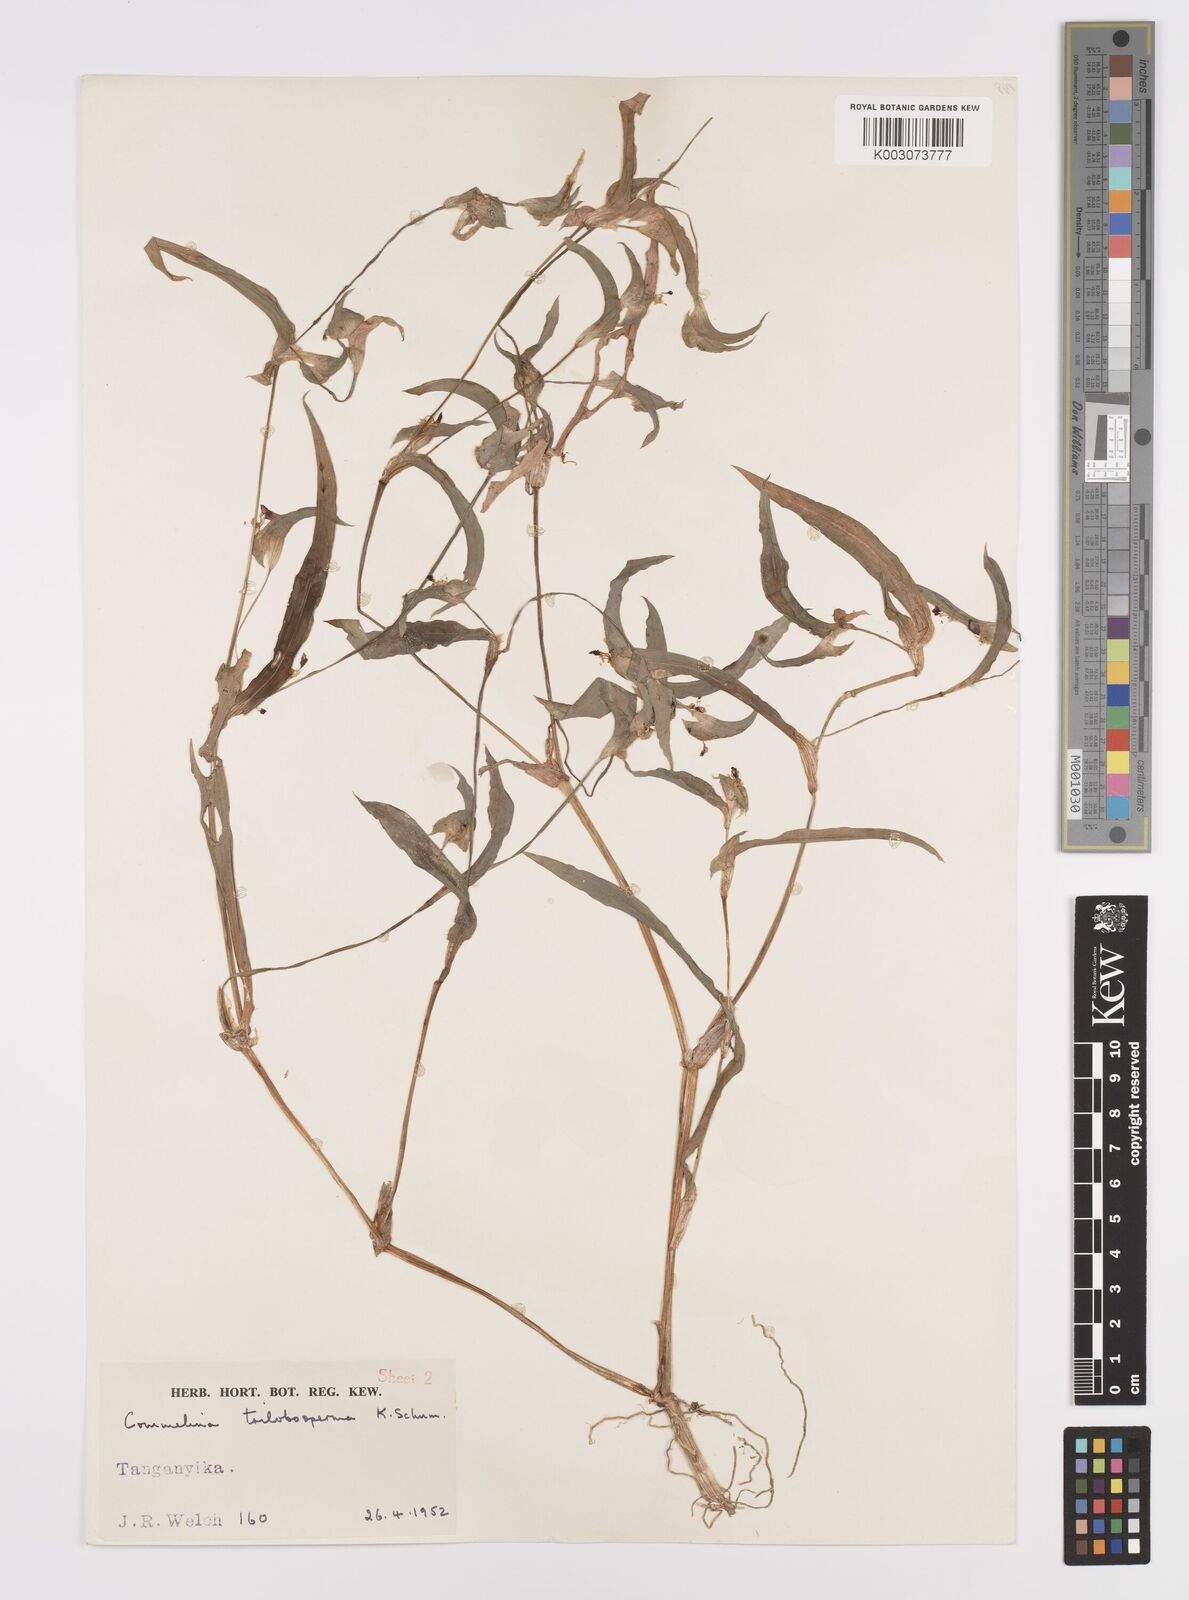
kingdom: Plantae
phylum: Tracheophyta
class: Liliopsida
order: Commelinales
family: Commelinaceae
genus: Commelina
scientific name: Commelina trilobosperma
